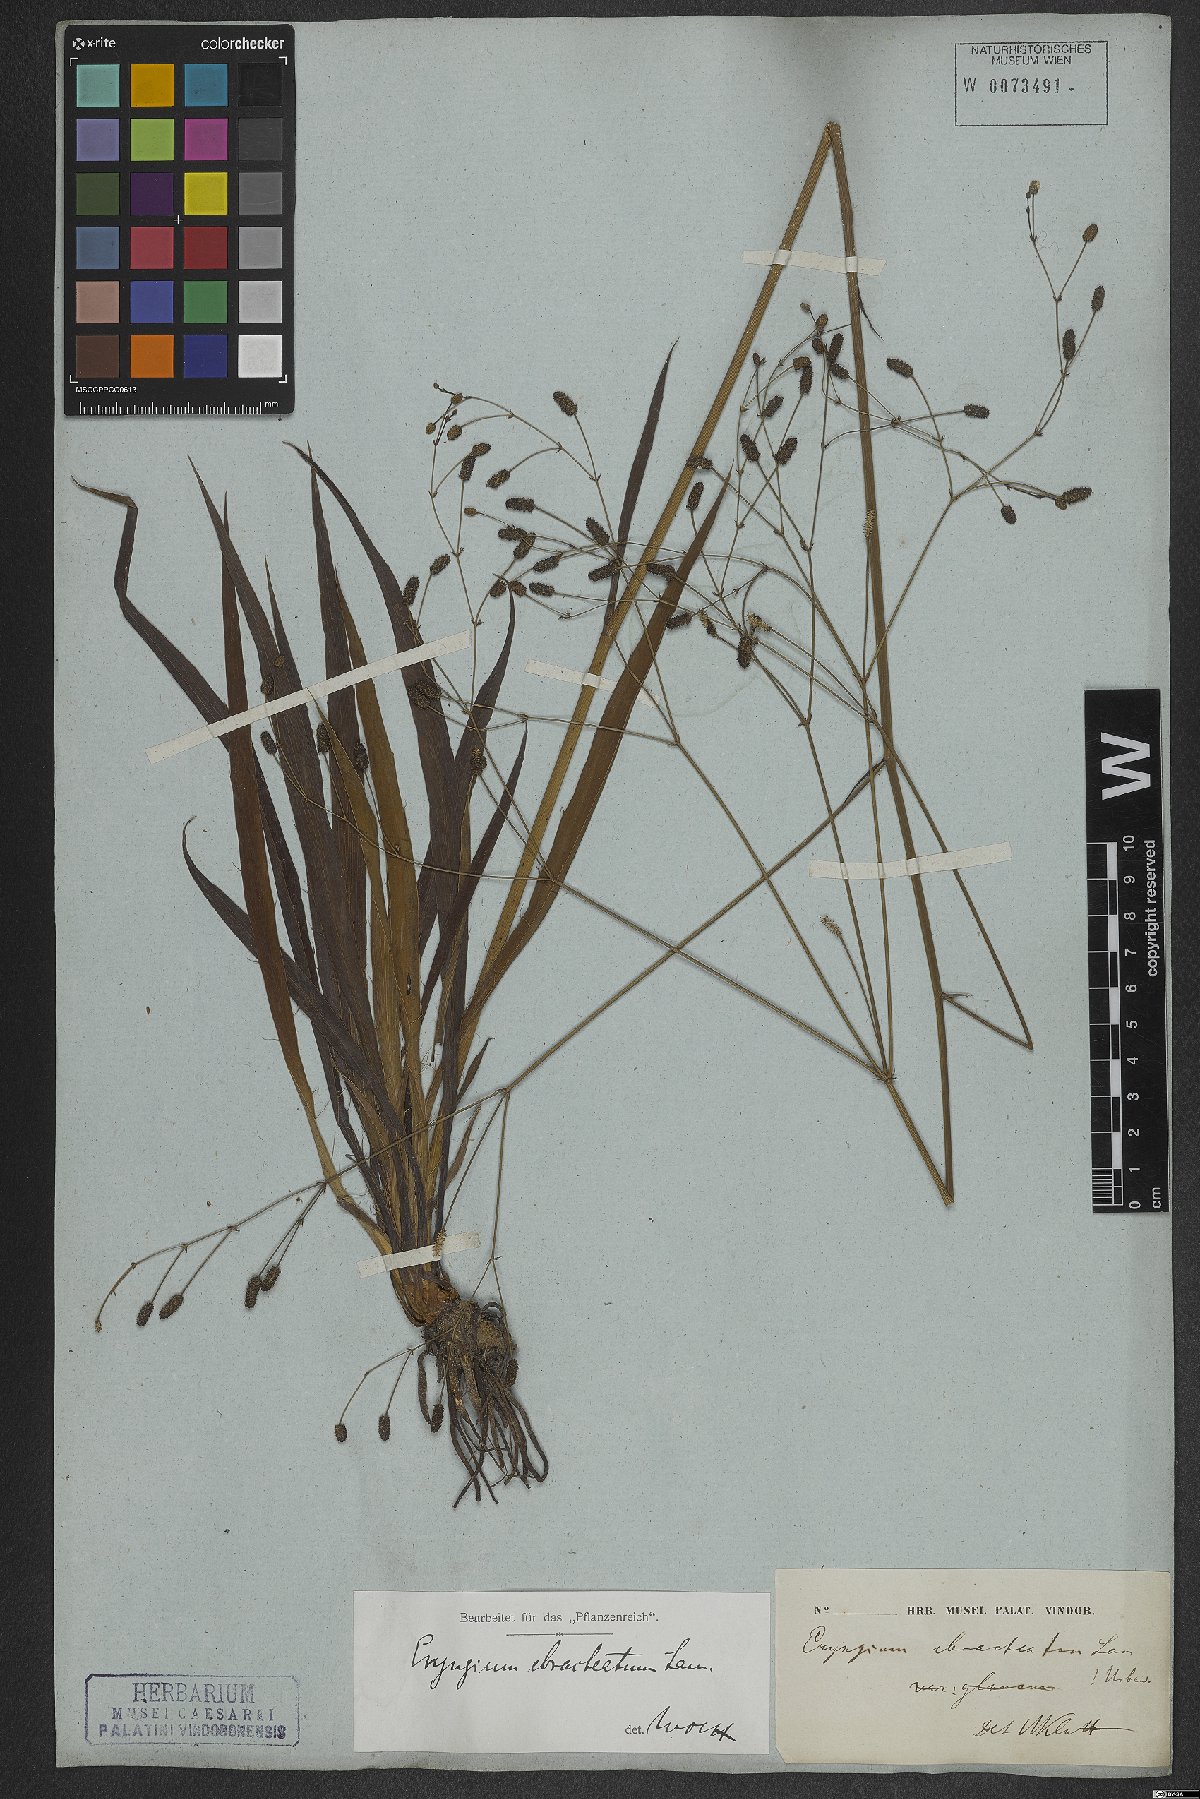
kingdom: Plantae
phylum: Tracheophyta
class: Magnoliopsida
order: Apiales
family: Apiaceae
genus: Eryngium
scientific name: Eryngium ebracteatum
